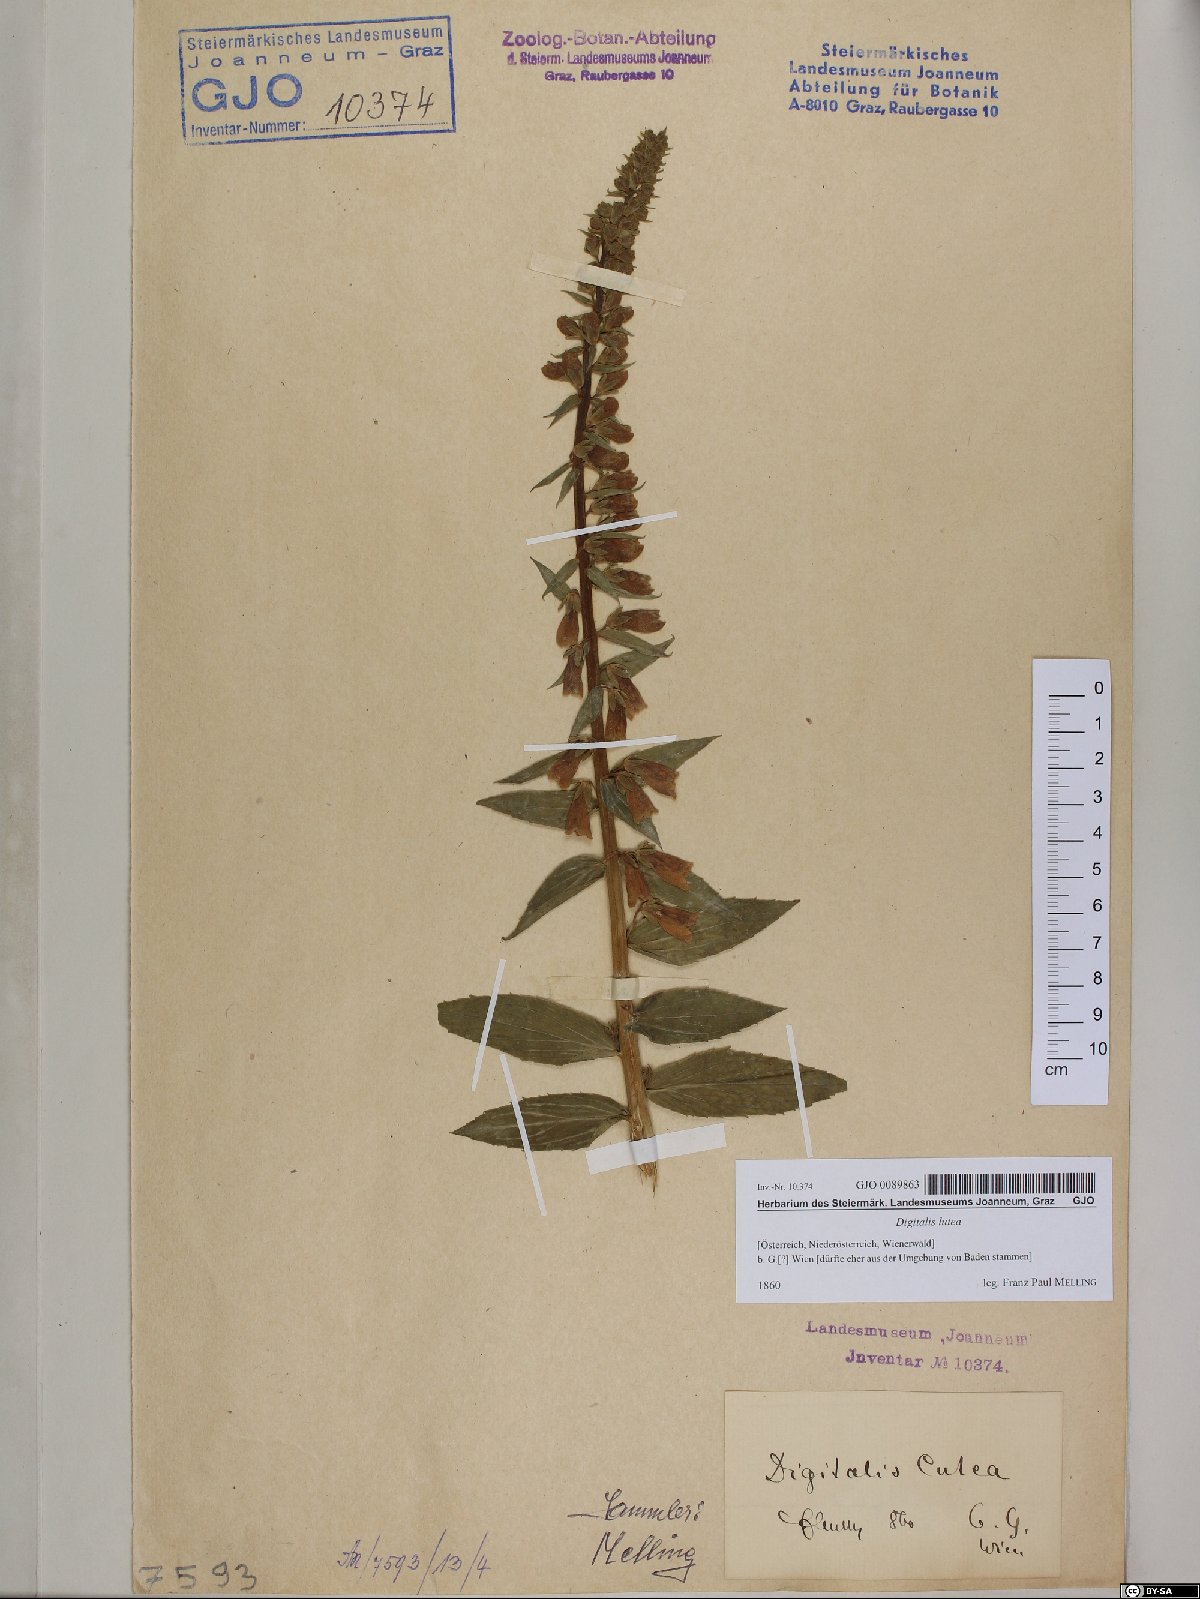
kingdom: Plantae
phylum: Tracheophyta
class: Magnoliopsida
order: Lamiales
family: Plantaginaceae
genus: Digitalis
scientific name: Digitalis lutea
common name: Straw foxglove
